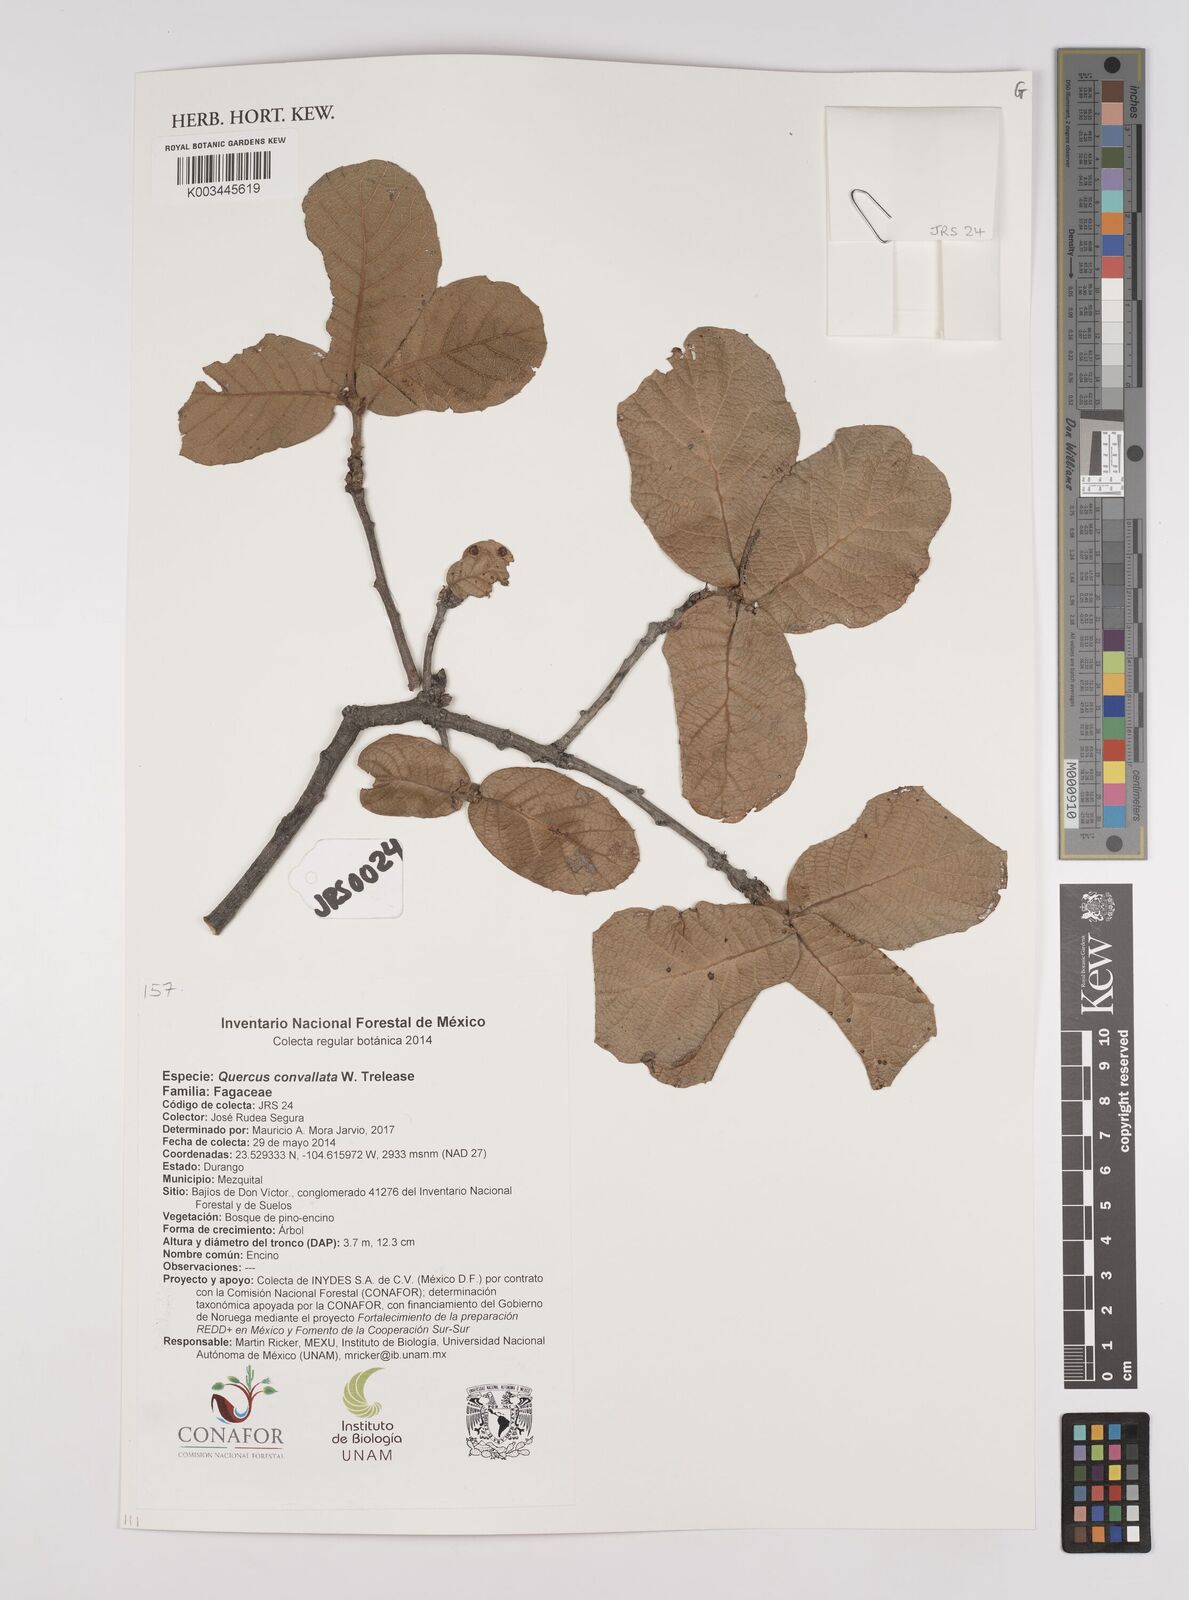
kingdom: Plantae
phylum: Tracheophyta
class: Magnoliopsida
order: Fagales
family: Fagaceae
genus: Quercus
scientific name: Quercus convallata
